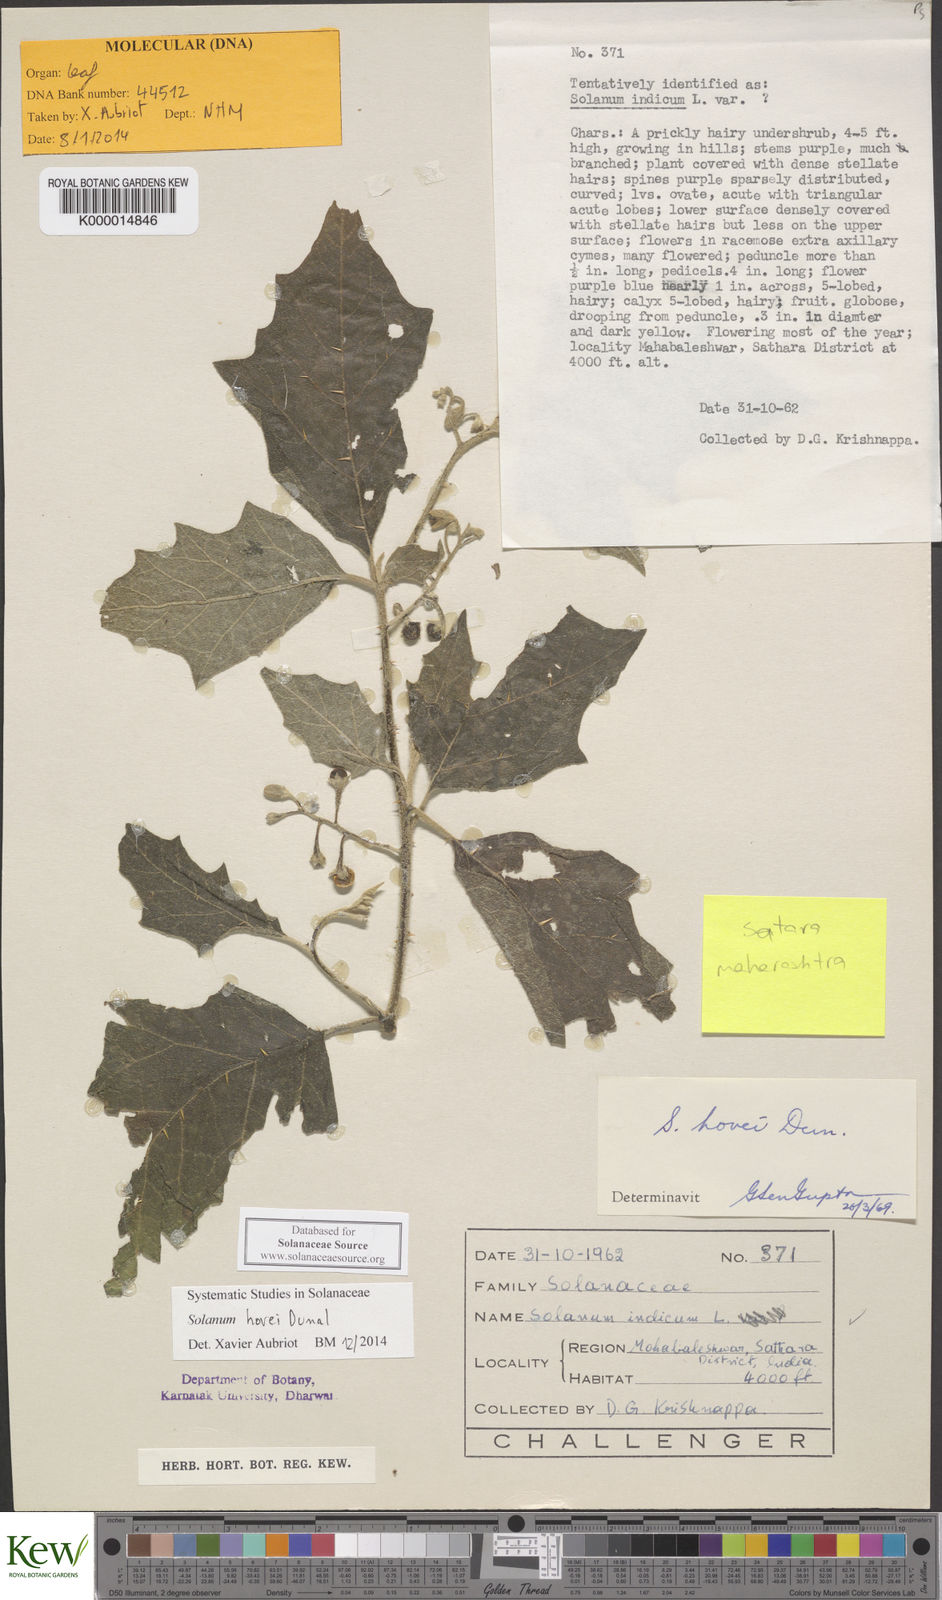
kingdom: Plantae
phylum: Tracheophyta
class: Magnoliopsida
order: Solanales
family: Solanaceae
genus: Solanum
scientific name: Solanum hovei
